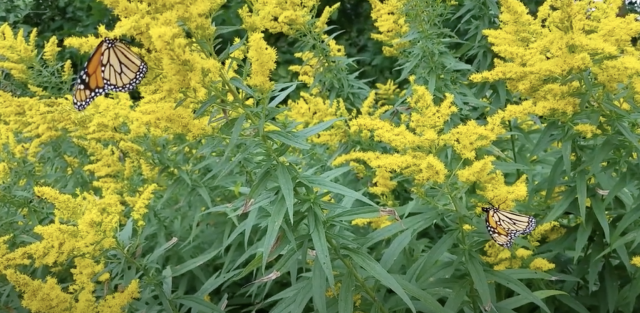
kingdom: Animalia
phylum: Arthropoda
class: Insecta
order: Lepidoptera
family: Nymphalidae
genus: Danaus
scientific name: Danaus plexippus
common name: Monarch
